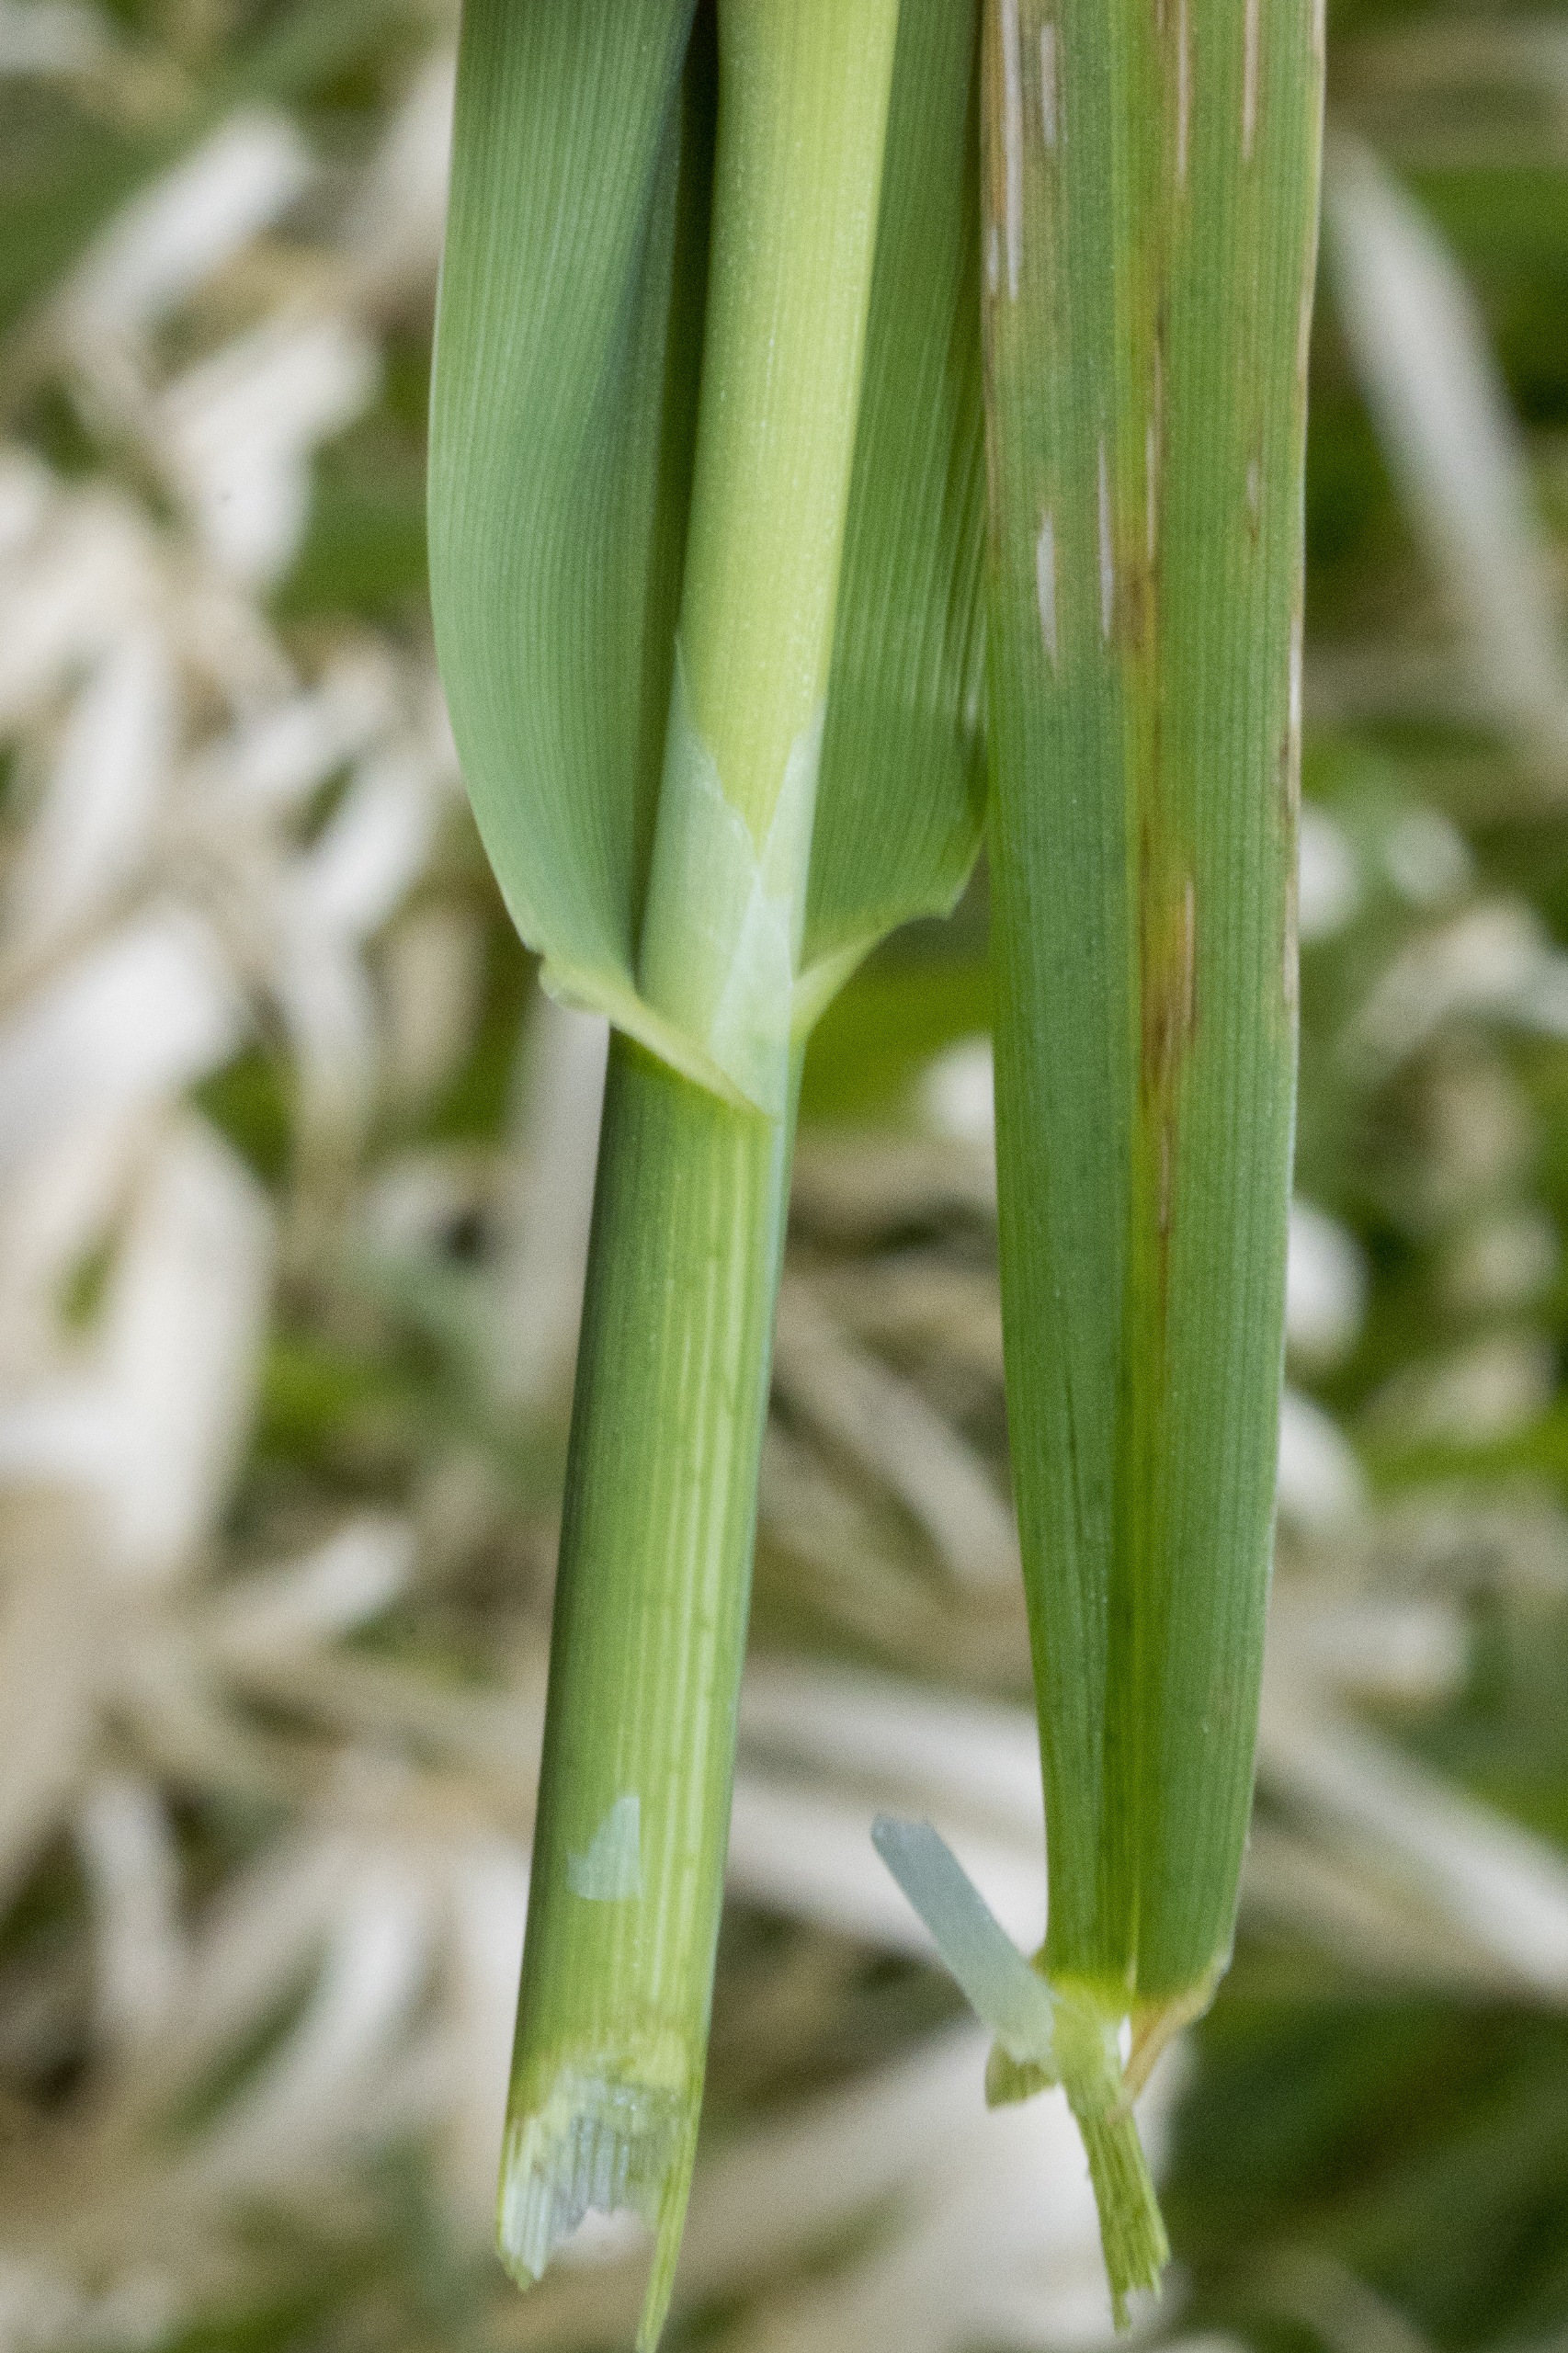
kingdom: Plantae
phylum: Tracheophyta
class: Liliopsida
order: Poales
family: Poaceae
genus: Phalaris
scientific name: Phalaris arundinacea
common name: Rørgræs
